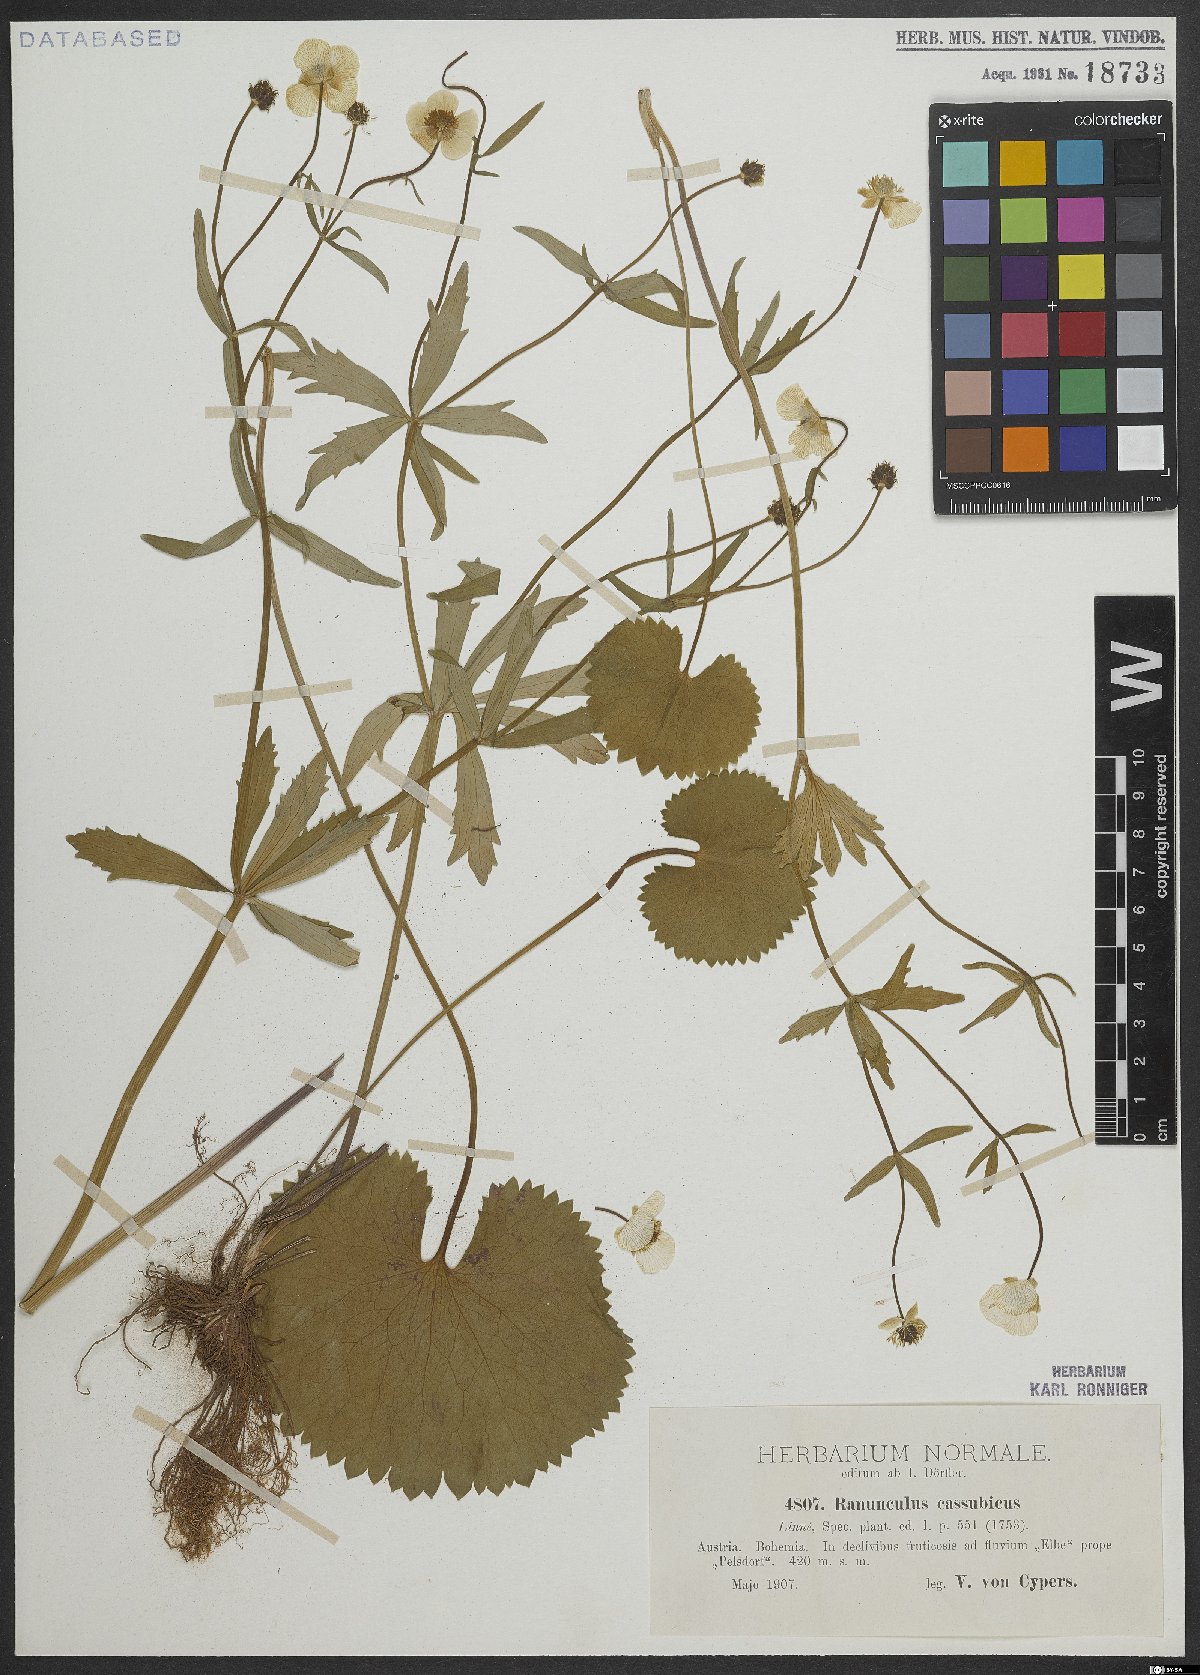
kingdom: Plantae
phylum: Tracheophyta
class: Magnoliopsida
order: Ranunculales
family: Ranunculaceae
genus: Ranunculus
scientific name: Ranunculus cassubicus
